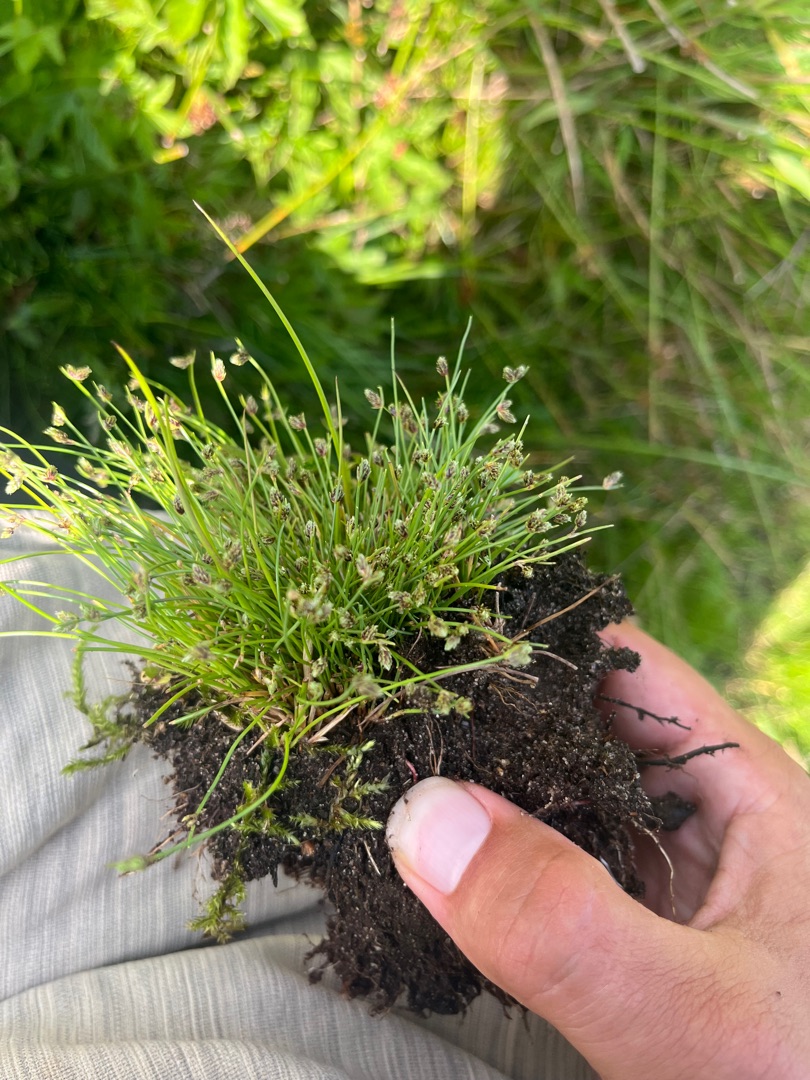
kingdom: Plantae
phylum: Tracheophyta
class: Liliopsida
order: Poales
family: Cyperaceae
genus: Isolepis
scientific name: Isolepis setacea
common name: Børste-kogleaks
